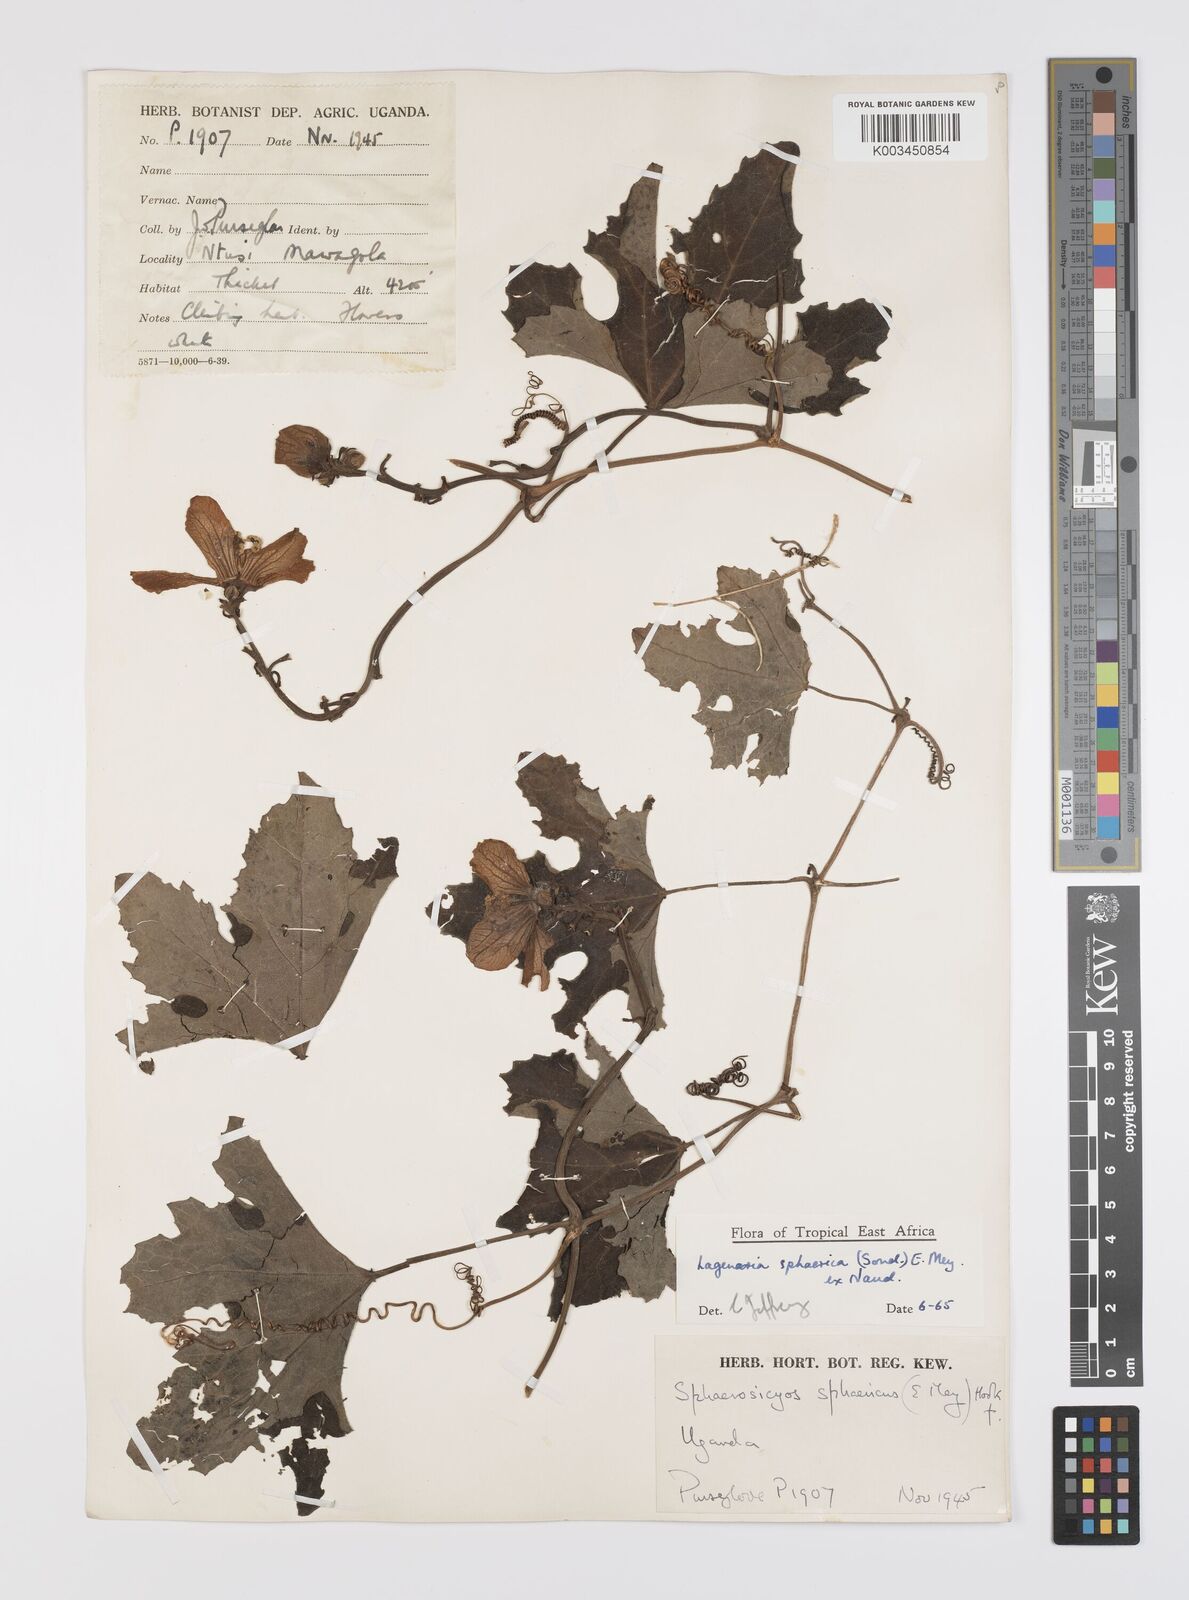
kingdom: Plantae
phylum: Tracheophyta
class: Magnoliopsida
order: Cucurbitales
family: Cucurbitaceae
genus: Lagenaria
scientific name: Lagenaria sphaerica
